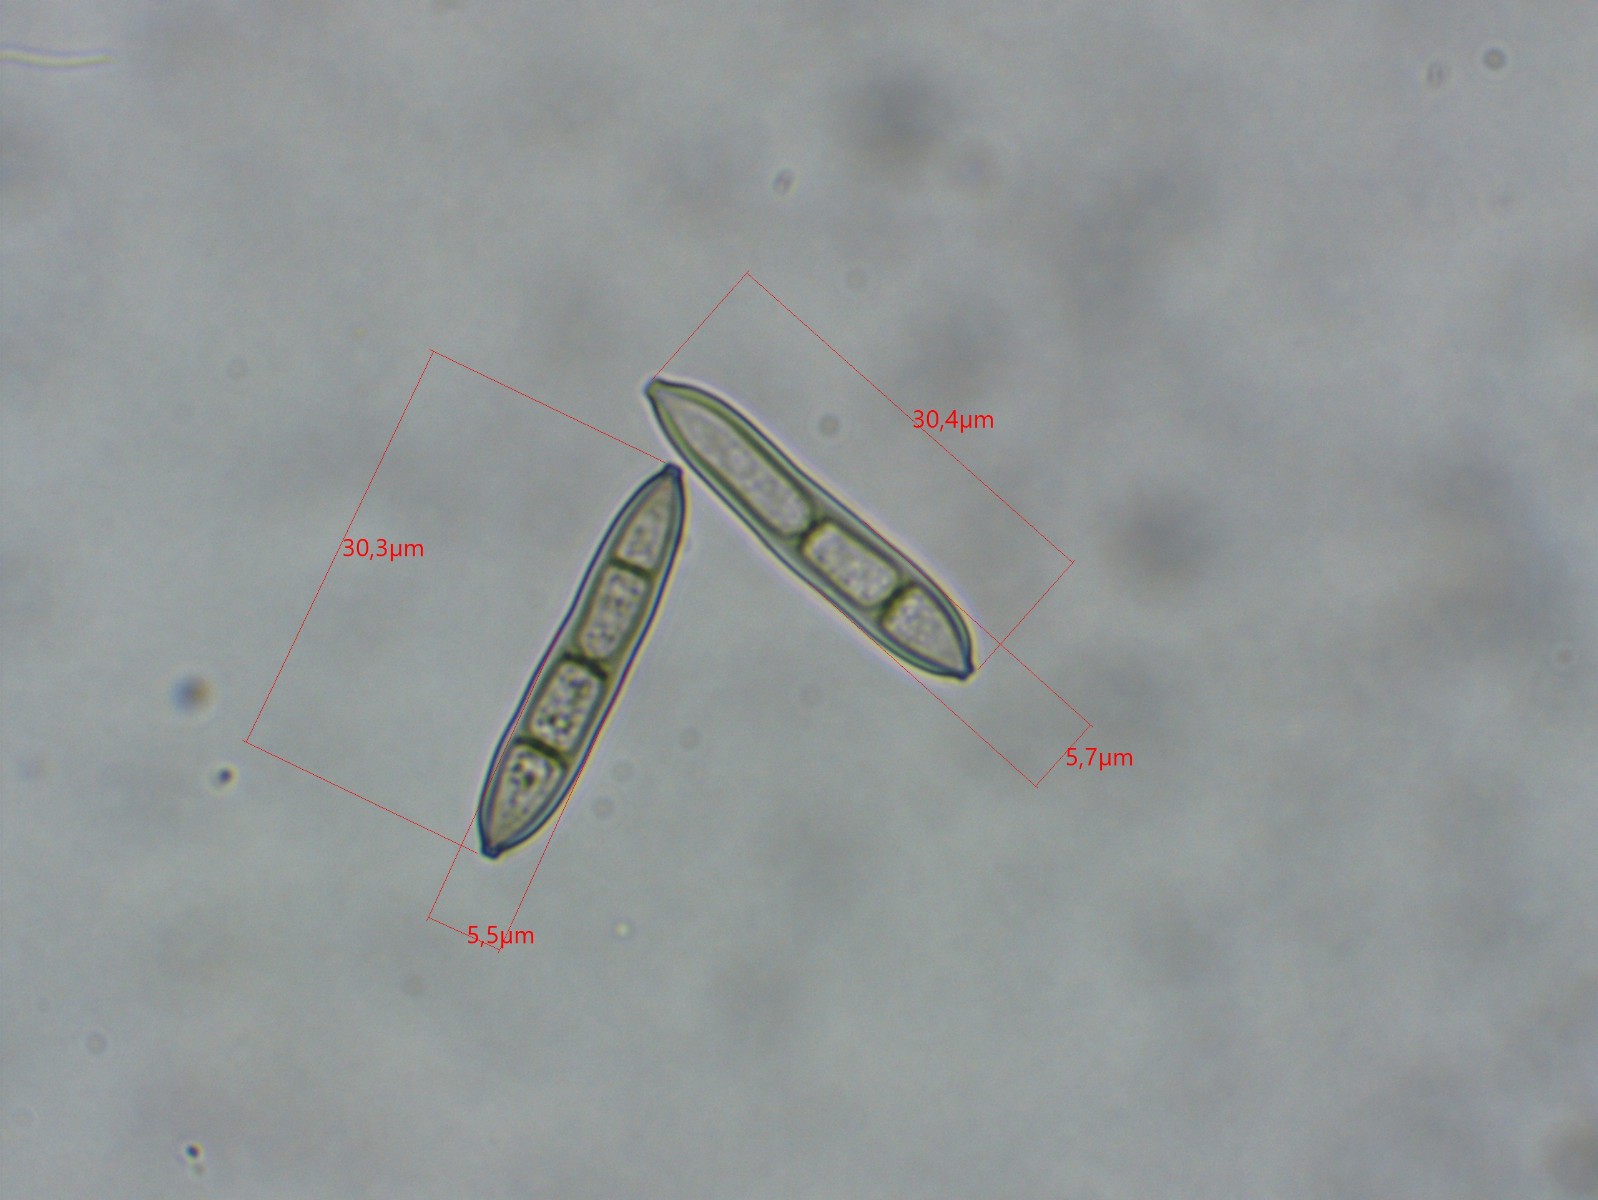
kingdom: Fungi
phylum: Ascomycota
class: Dothideomycetes
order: Pleosporales
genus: Sporidesmium
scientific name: Sporidesmium tetracoilum
